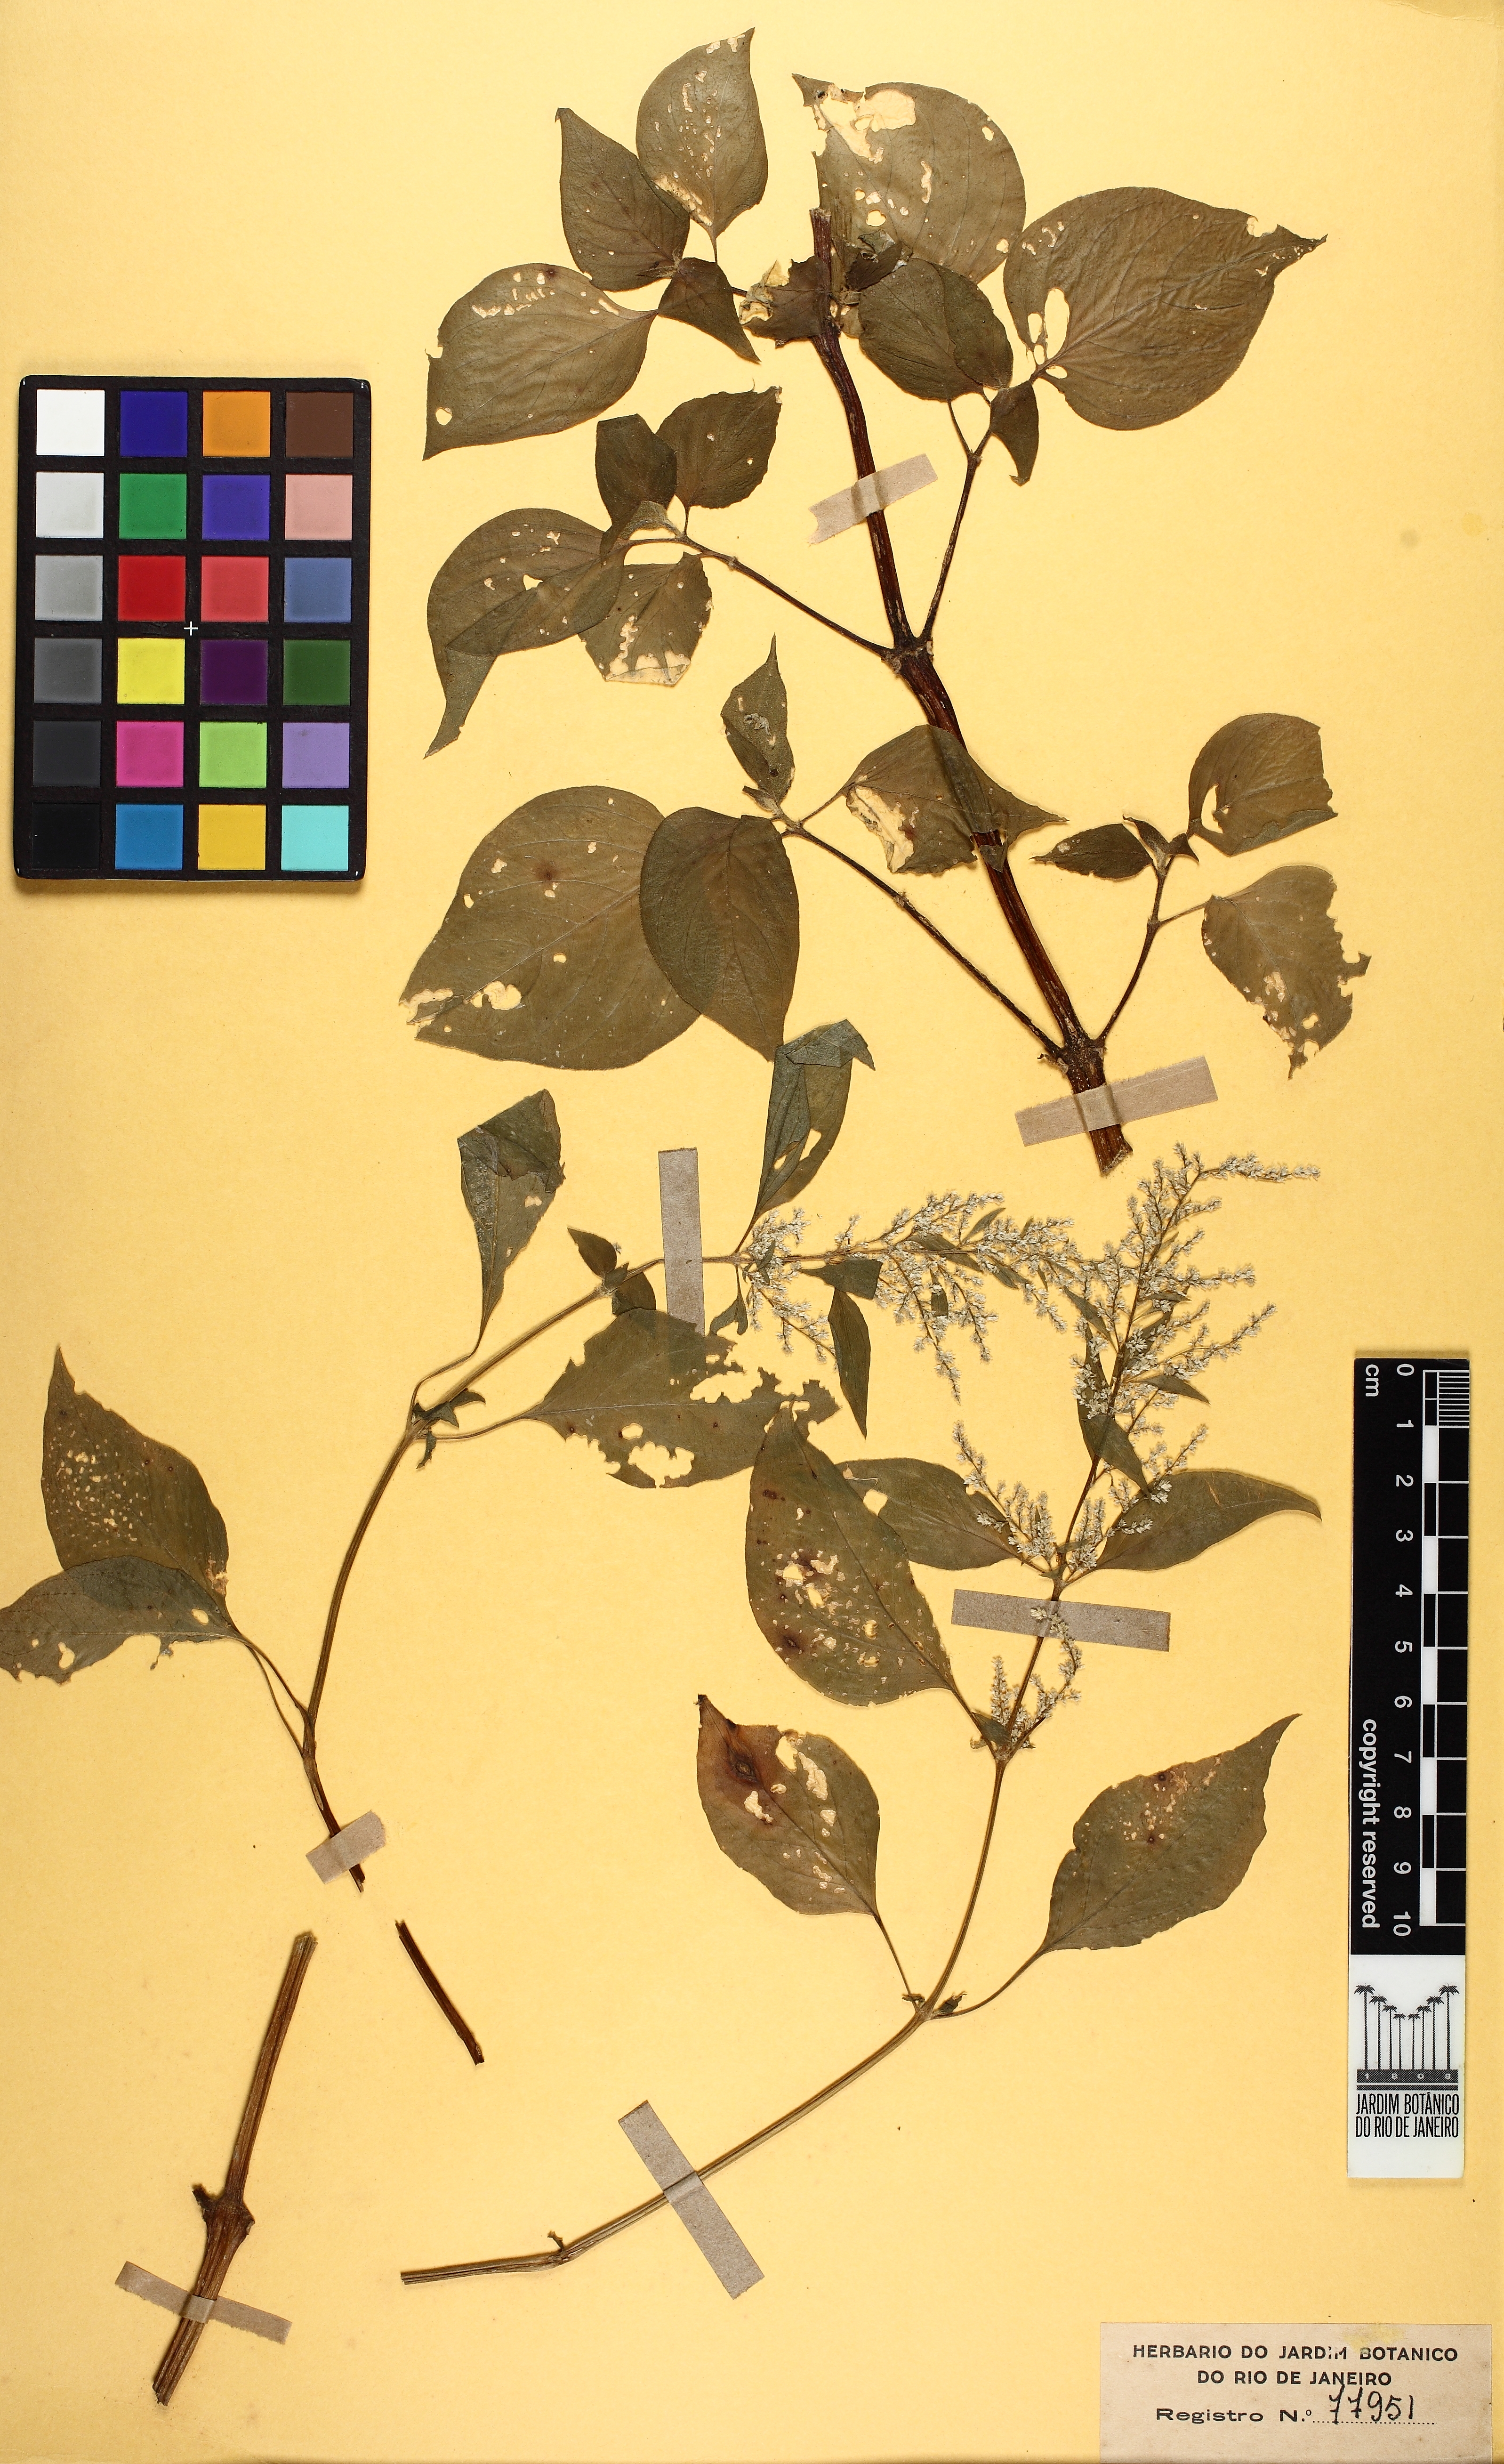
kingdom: Plantae
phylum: Tracheophyta
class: Magnoliopsida
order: Caryophyllales
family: Amaranthaceae
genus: Iresine
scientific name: Iresine diffusa
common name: Juba's-bush
